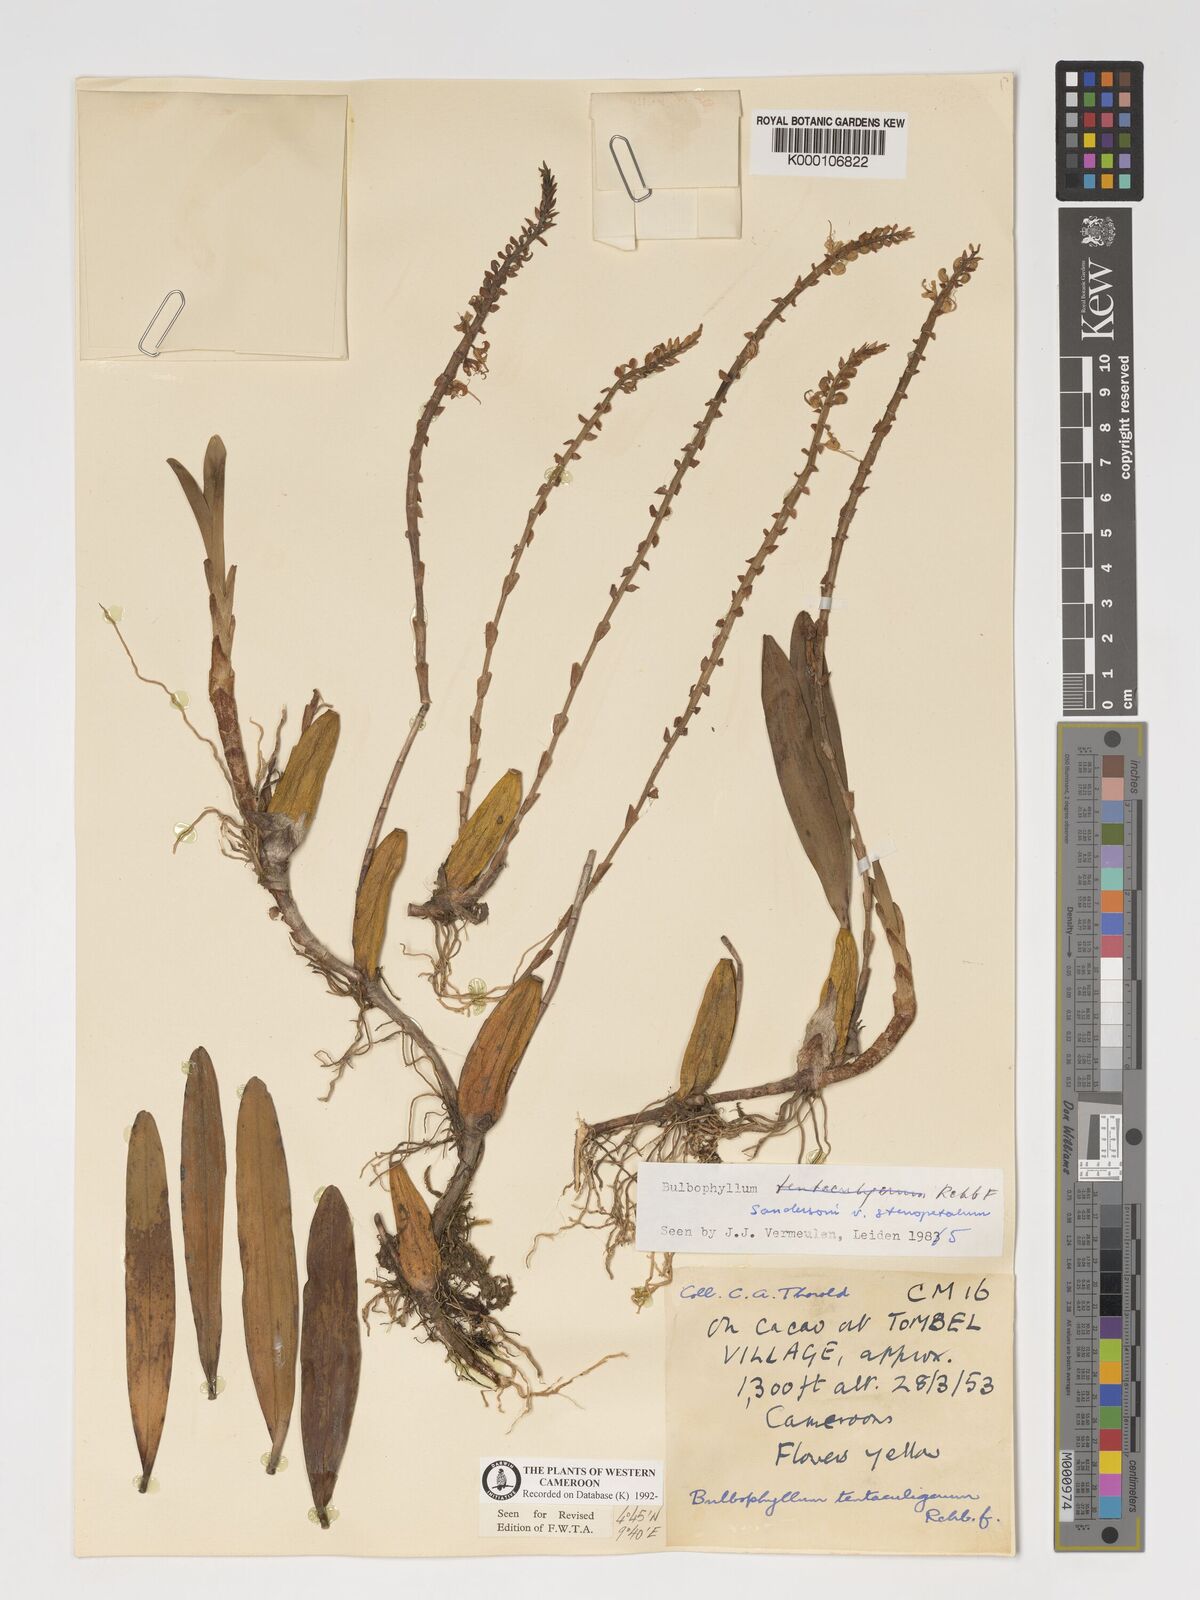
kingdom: Plantae
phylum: Tracheophyta
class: Liliopsida
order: Asparagales
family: Orchidaceae
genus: Bulbophyllum
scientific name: Bulbophyllum sandersonii
